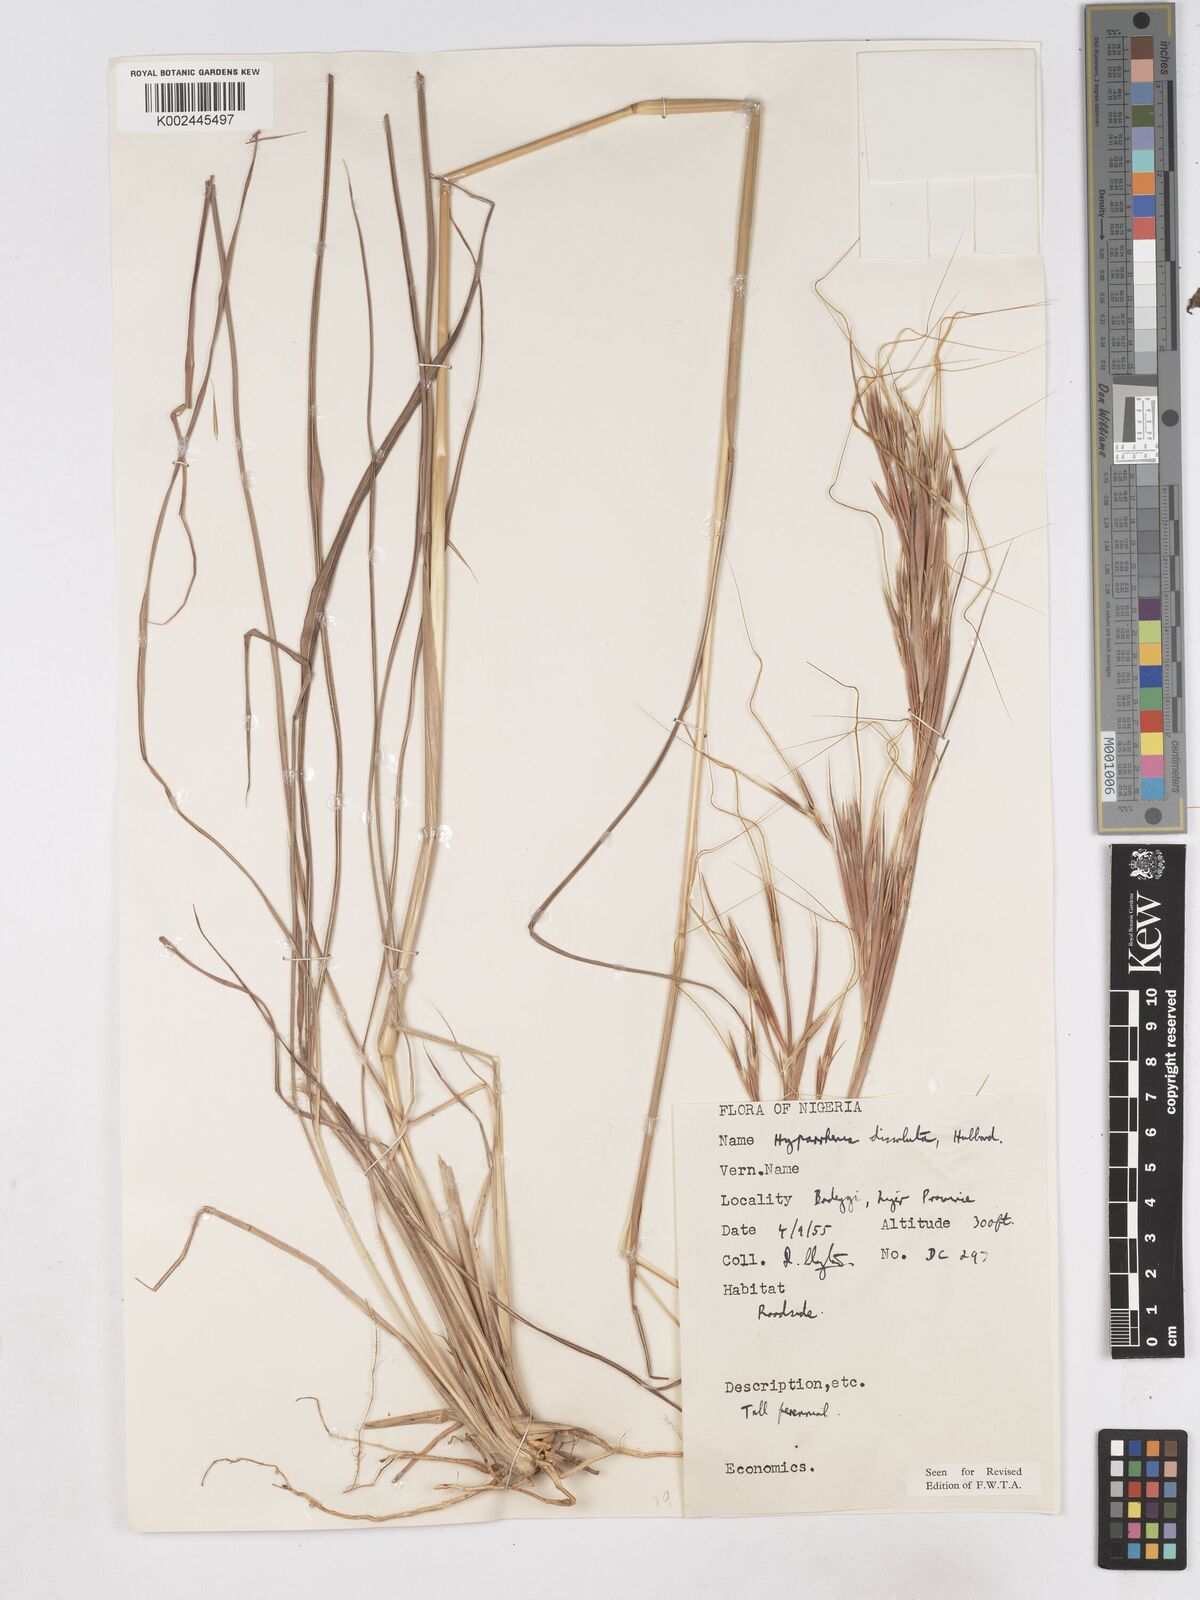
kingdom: Plantae
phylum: Tracheophyta
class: Liliopsida
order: Poales
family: Poaceae
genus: Hyperthelia
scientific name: Hyperthelia dissoluta
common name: Yellow thatching grass
